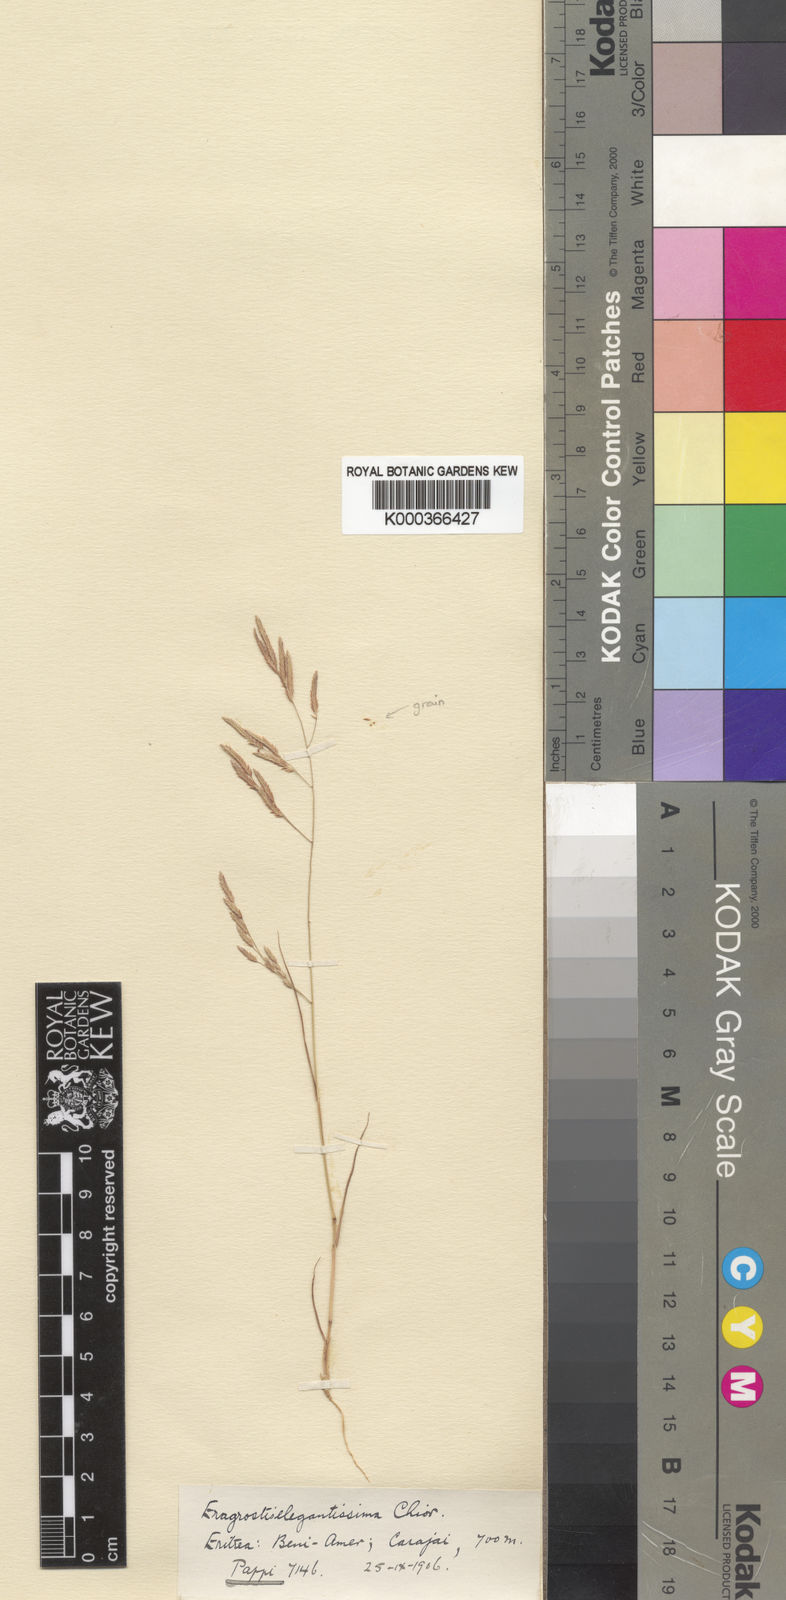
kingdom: Plantae
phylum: Tracheophyta
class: Liliopsida
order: Poales
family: Poaceae
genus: Eragrostis
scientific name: Eragrostis elegantissima
